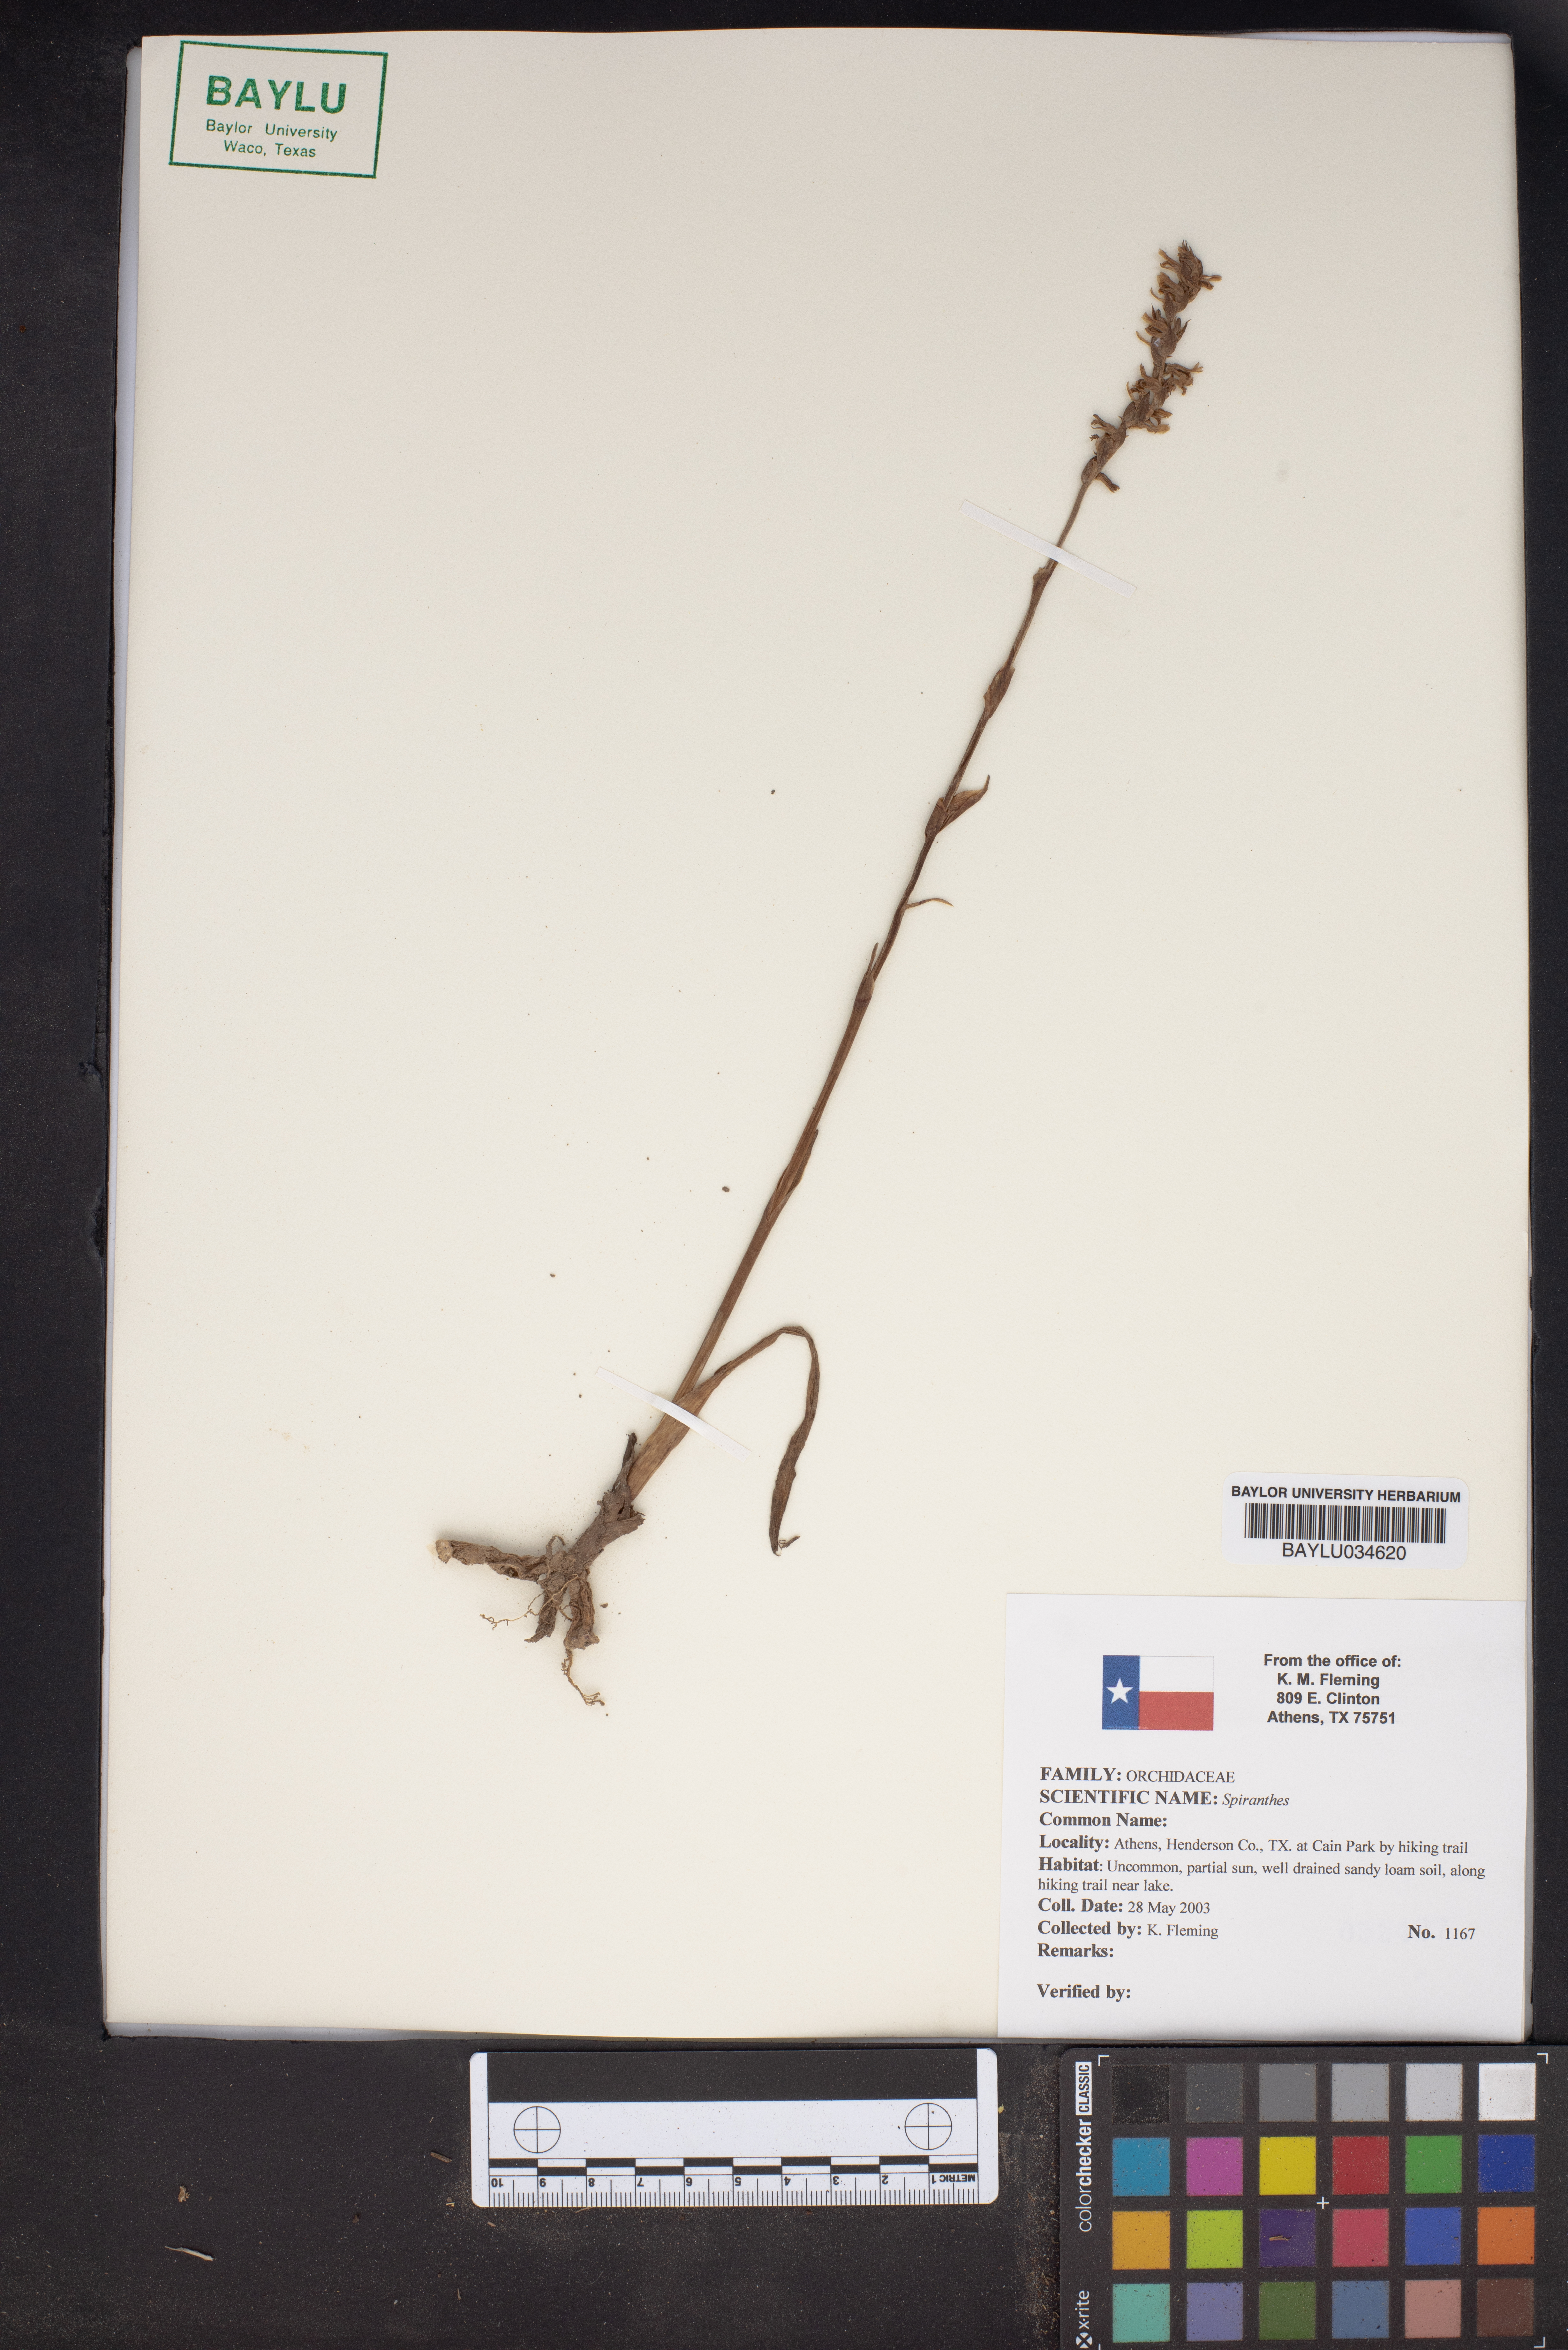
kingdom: Plantae
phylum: Tracheophyta
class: Magnoliopsida
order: Sapindales
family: Rutaceae
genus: Spiranthera
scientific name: Spiranthera
